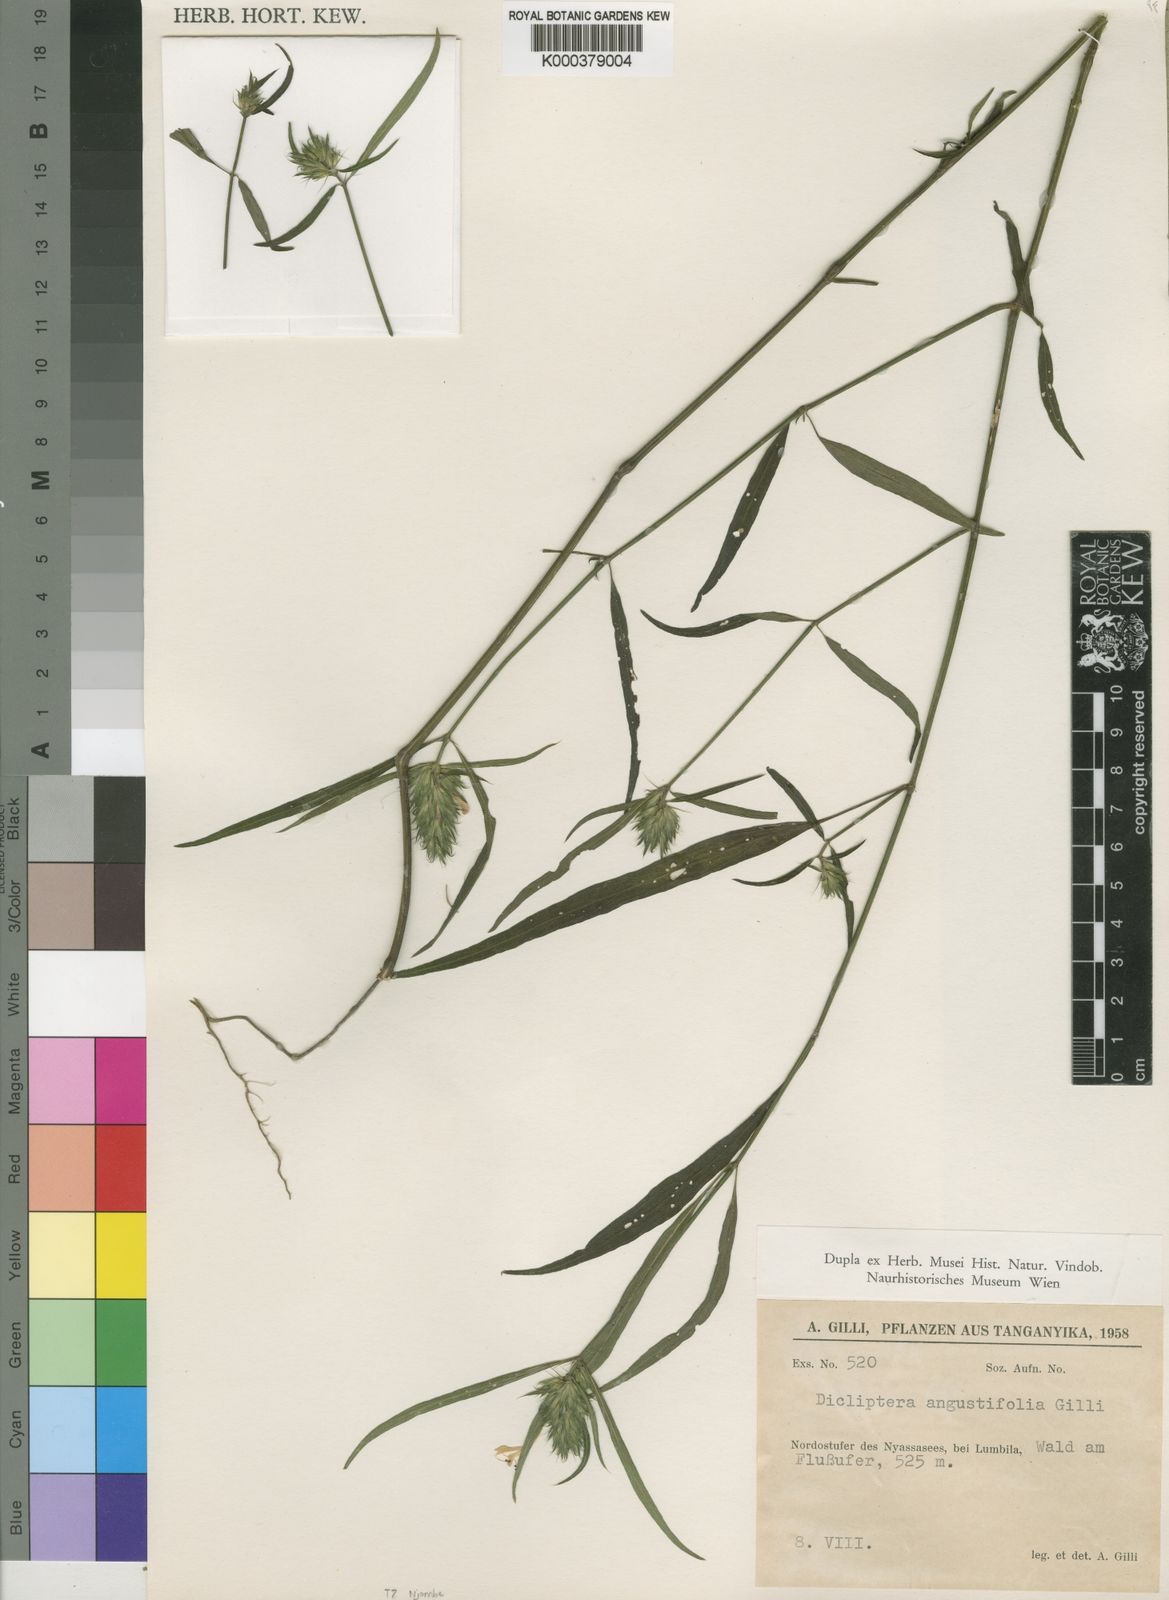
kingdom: Plantae
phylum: Tracheophyta
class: Magnoliopsida
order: Lamiales
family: Acanthaceae
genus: Dicliptera
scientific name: Dicliptera carvalhoi
